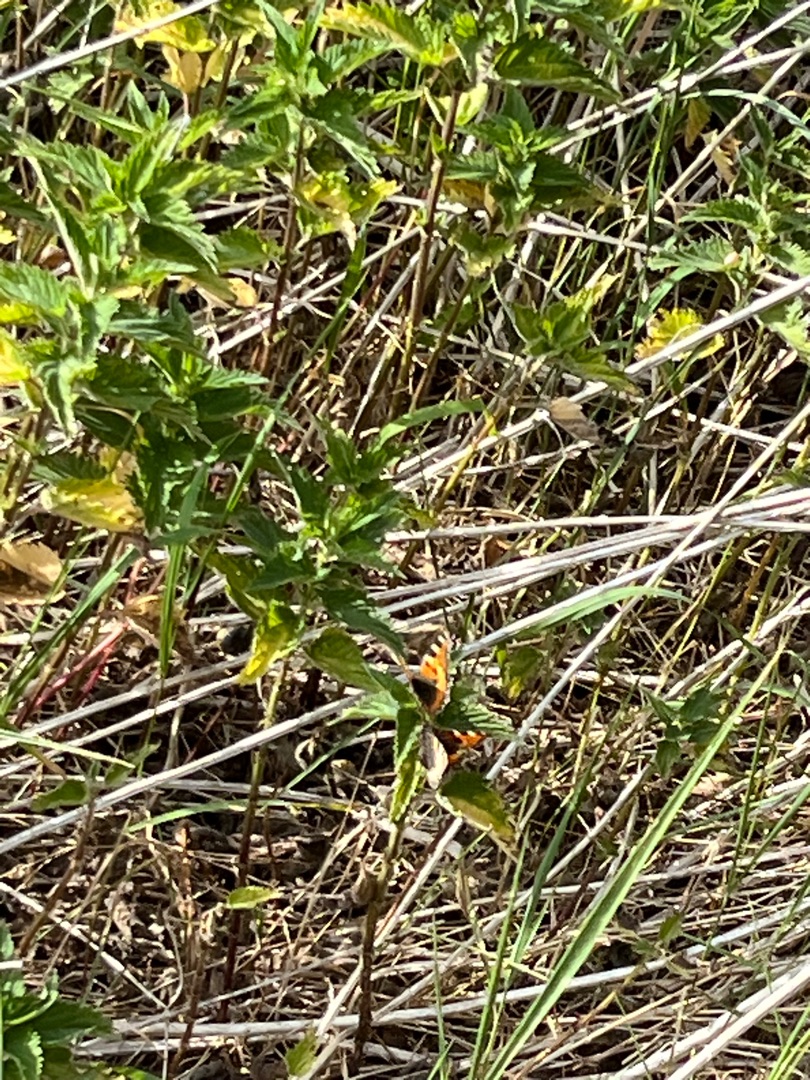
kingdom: Animalia
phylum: Arthropoda
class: Insecta
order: Lepidoptera
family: Nymphalidae
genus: Aglais
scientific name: Aglais urticae
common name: Nældens takvinge
